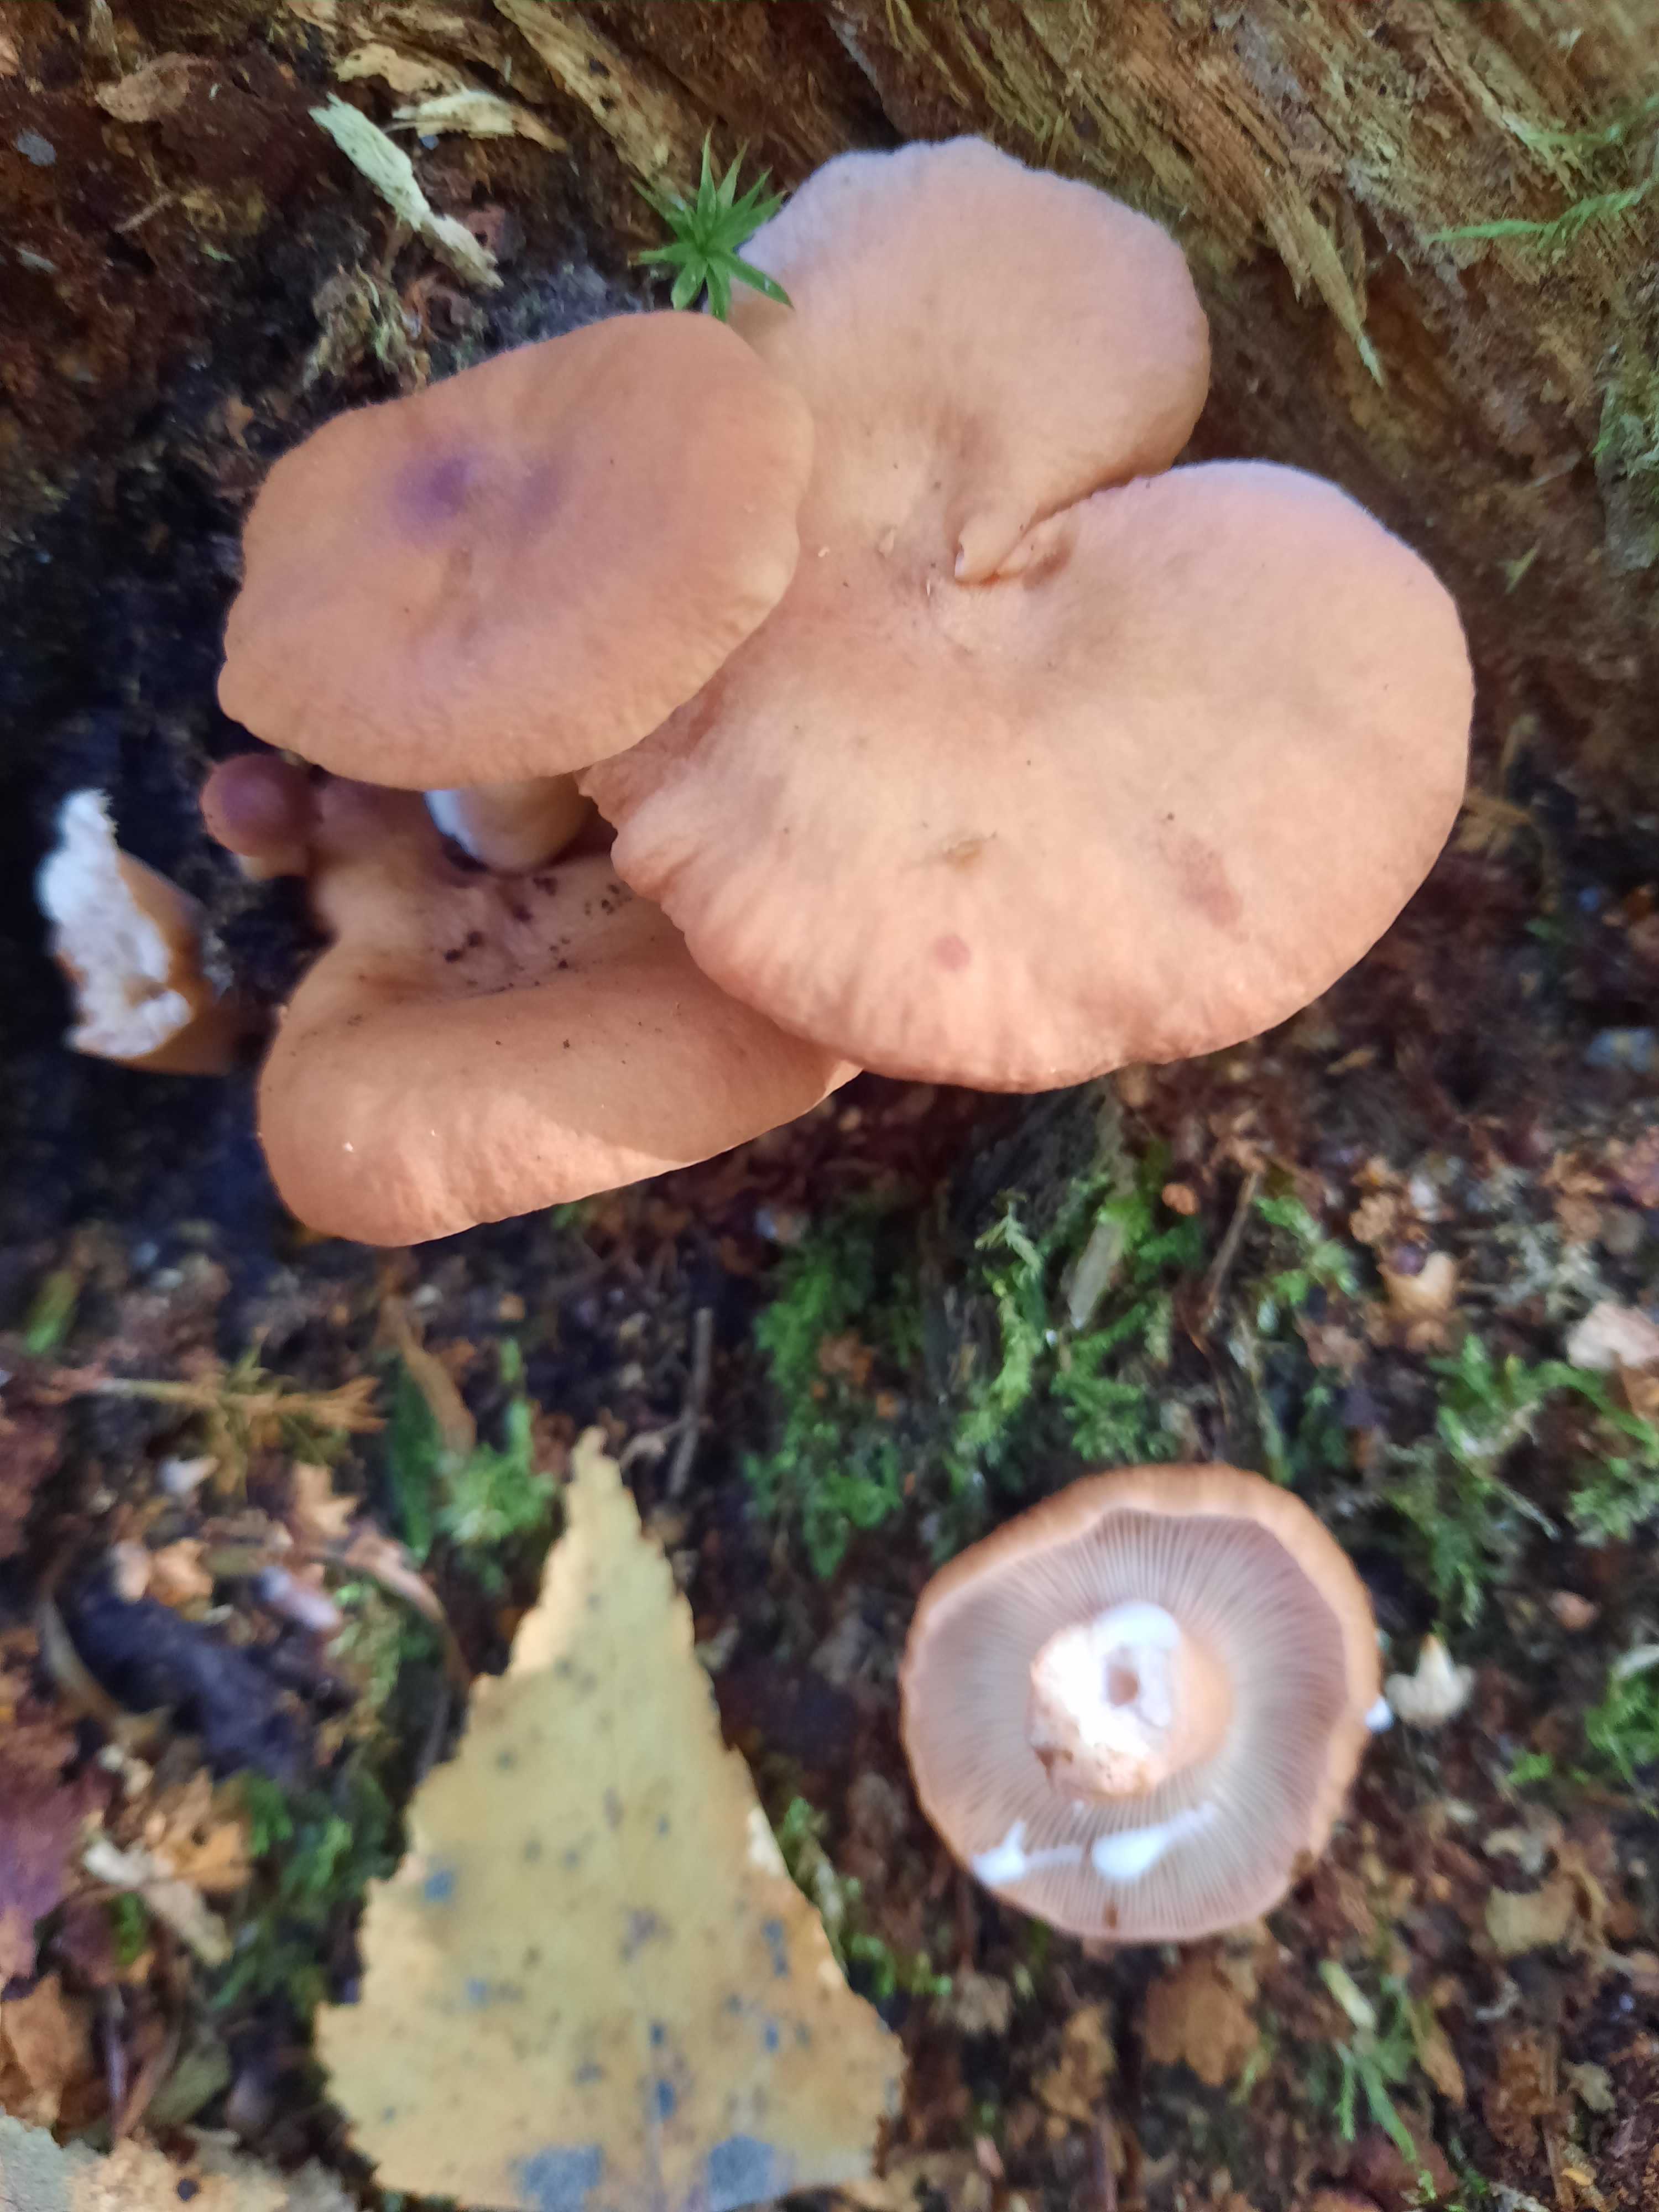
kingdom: Fungi
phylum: Basidiomycota
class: Agaricomycetes
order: Russulales
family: Russulaceae
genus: Lactarius
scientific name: Lactarius
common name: mælkehat
